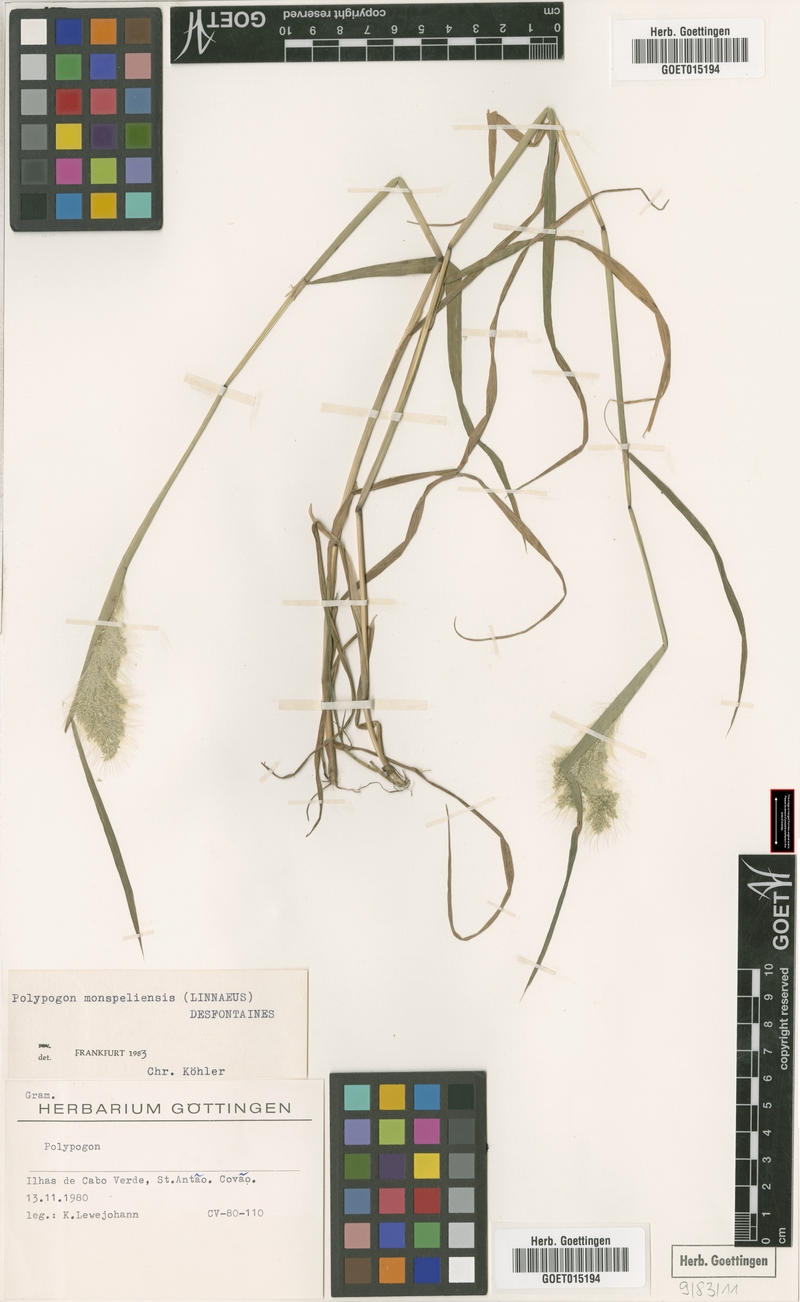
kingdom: Plantae
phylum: Tracheophyta
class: Liliopsida
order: Poales
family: Poaceae
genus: Polypogon
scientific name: Polypogon monspeliensis
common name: Annual rabbitsfoot grass
